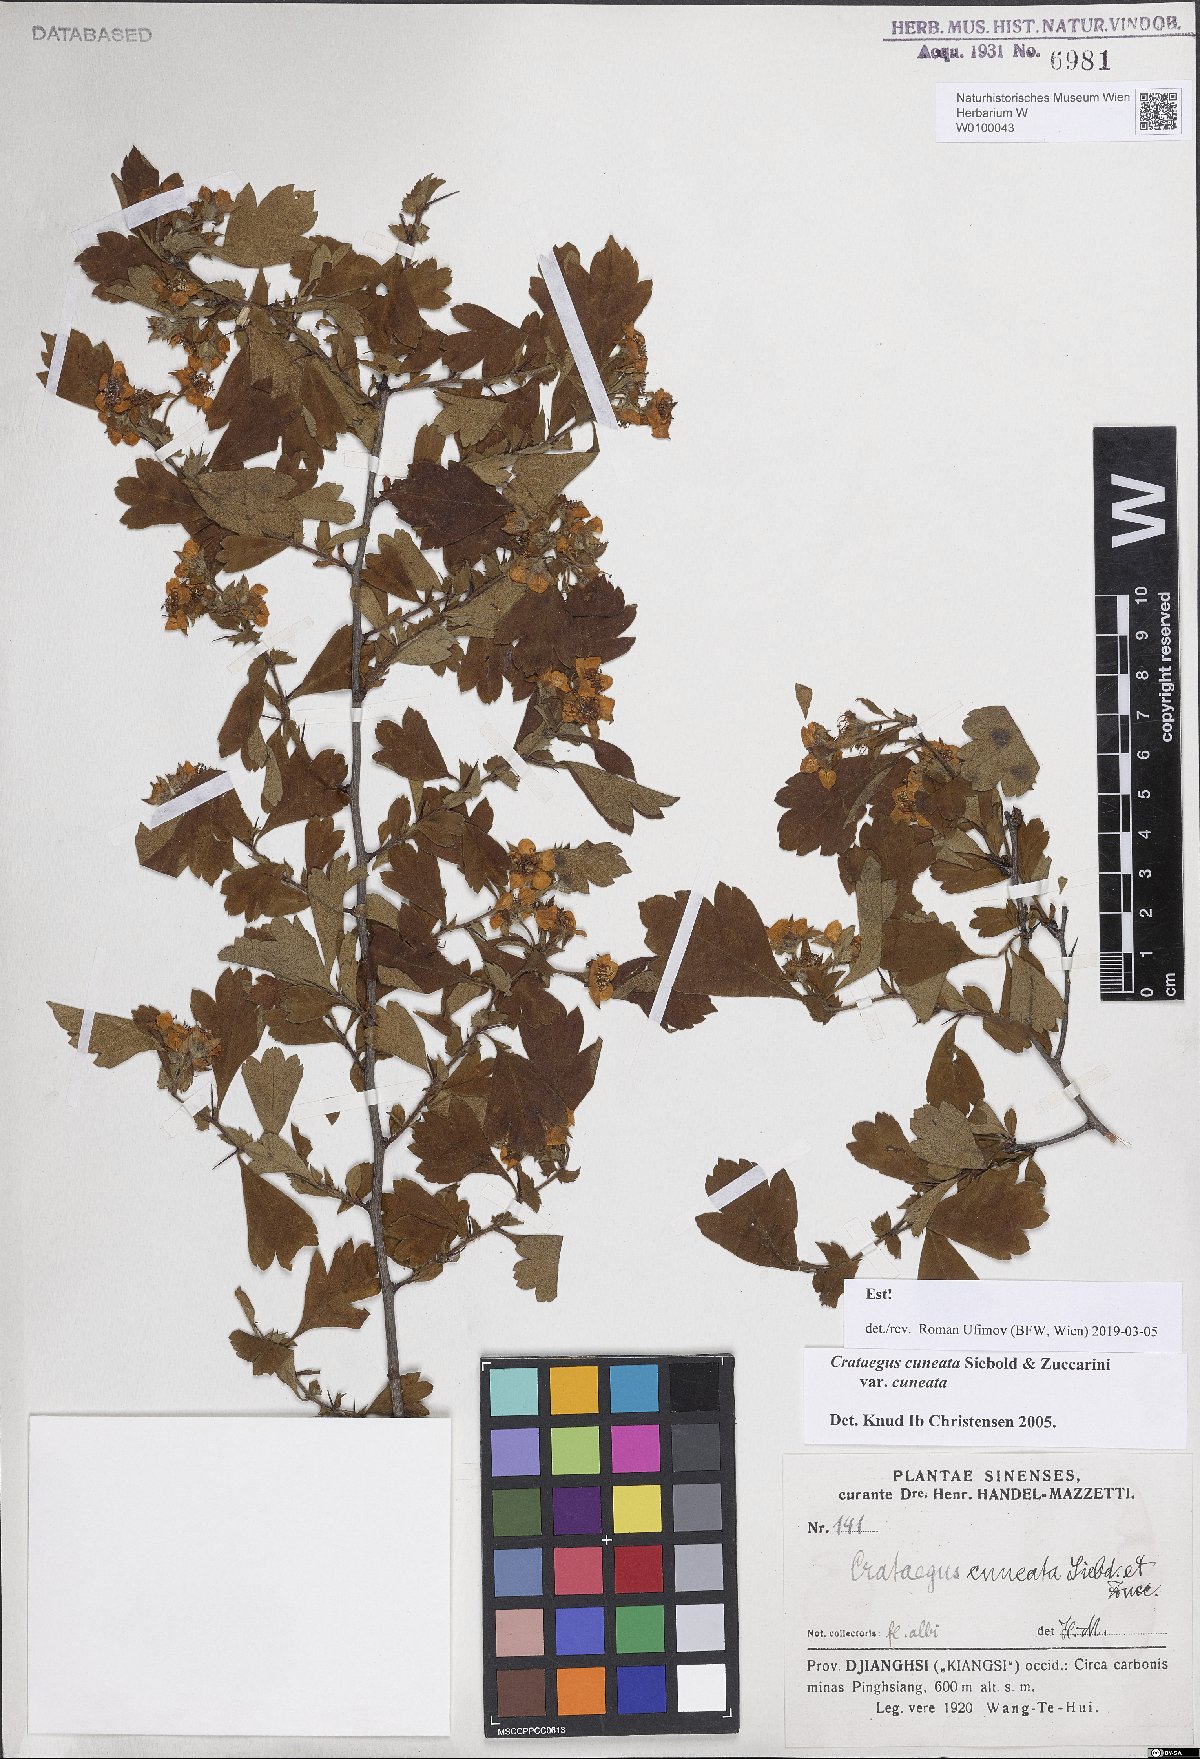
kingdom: Plantae
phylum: Tracheophyta
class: Magnoliopsida
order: Rosales
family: Rosaceae
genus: Crataegus
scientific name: Crataegus cuneata
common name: Chinese hawthorn
